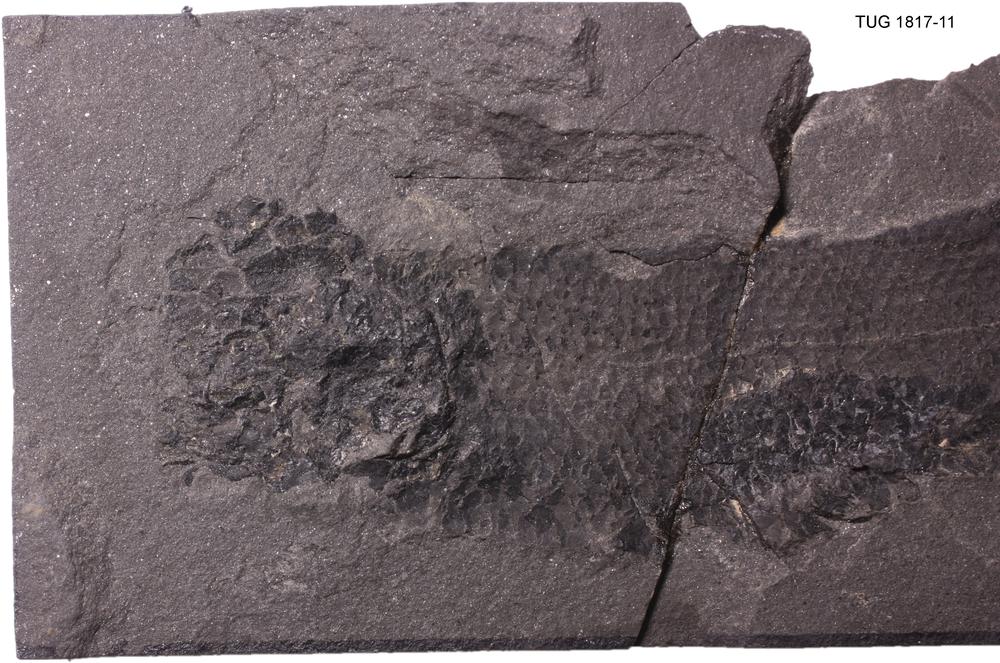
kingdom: Animalia
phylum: Chordata
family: Dipteridae
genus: Dipterus
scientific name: Dipterus valenciennesi
